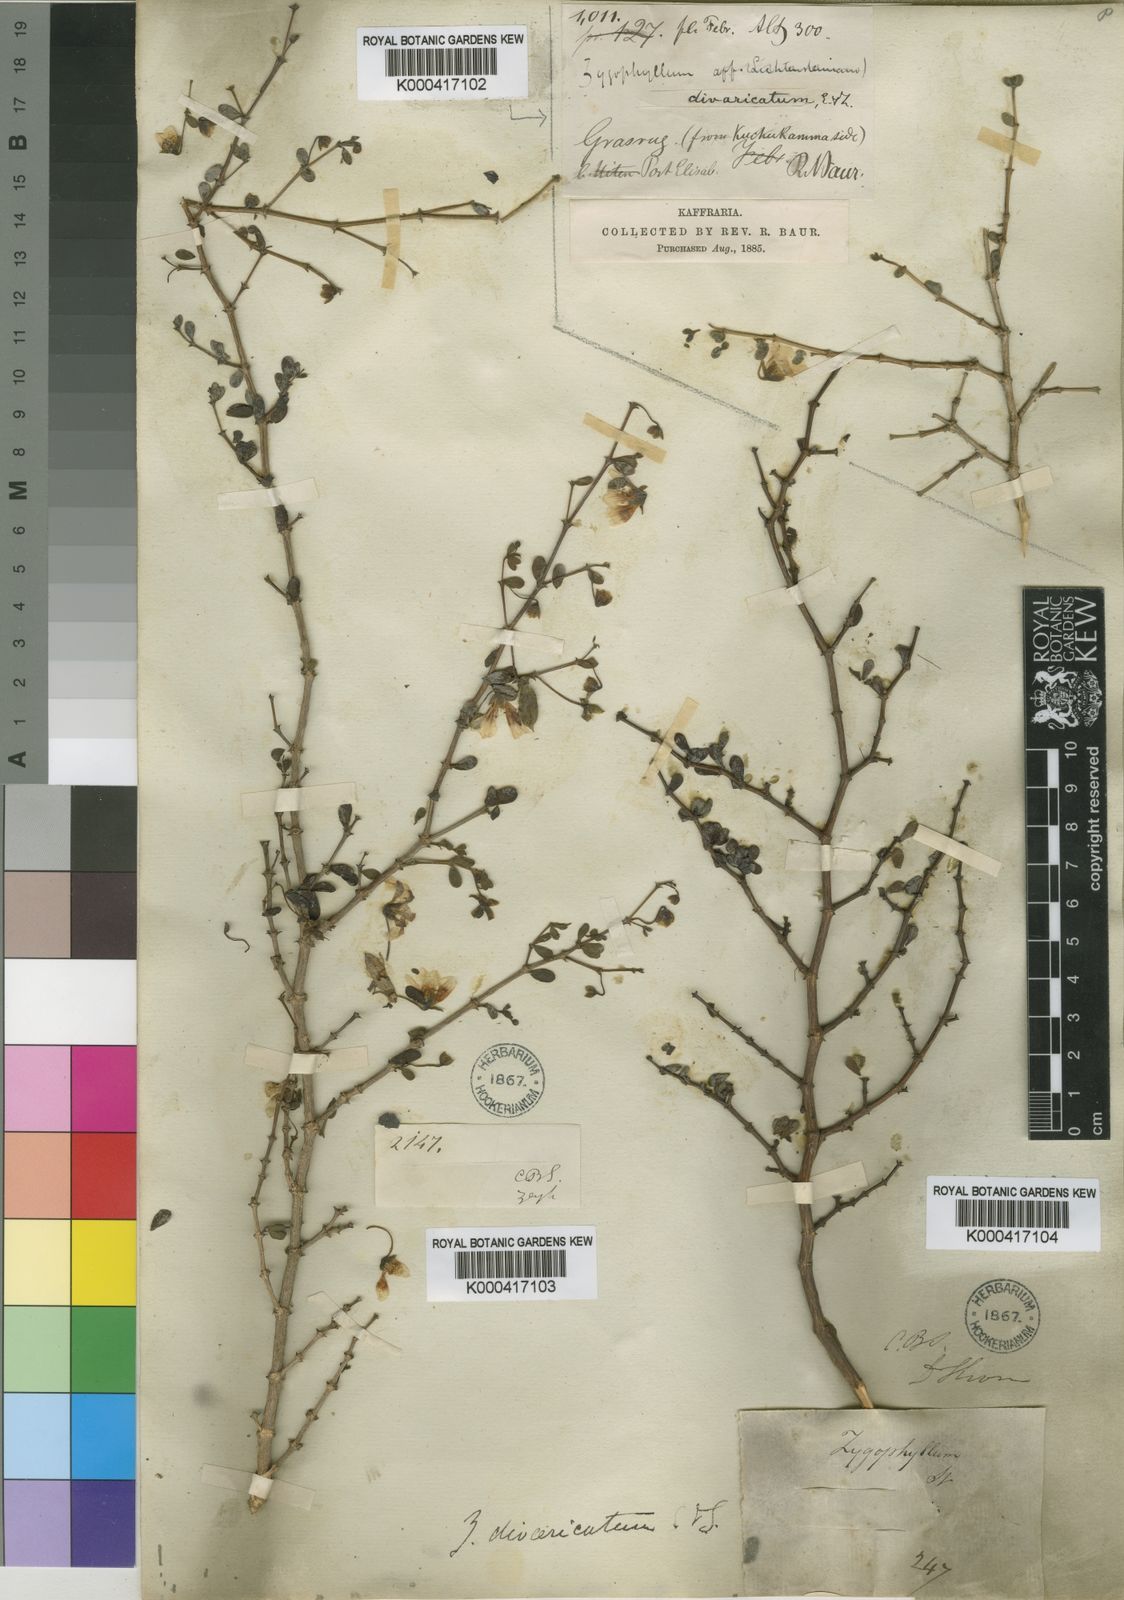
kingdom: Plantae
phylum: Tracheophyta
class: Magnoliopsida
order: Zygophyllales
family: Zygophyllaceae
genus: Roepera
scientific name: Roepera divaricata
